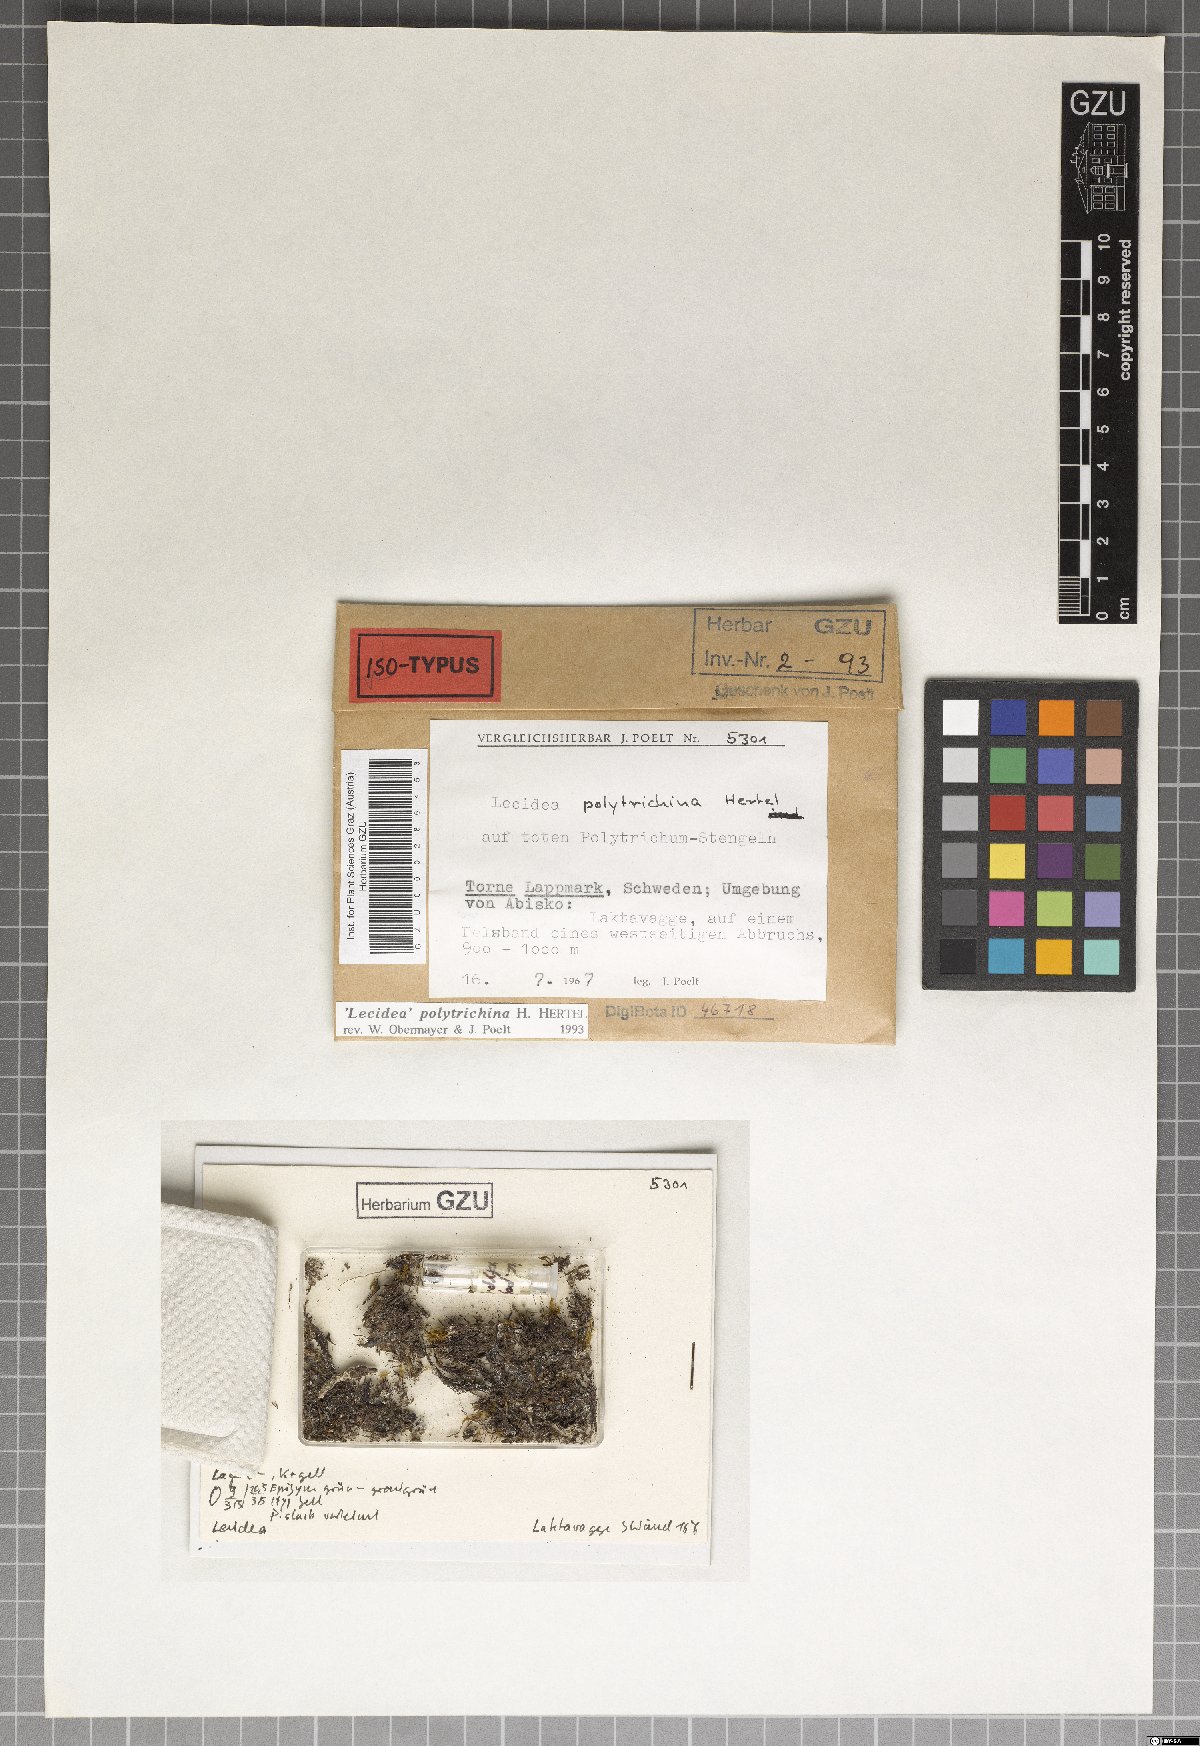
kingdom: Fungi
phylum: Ascomycota
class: Lecanoromycetes
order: Lecideales
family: Lecideaceae
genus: Lecidea
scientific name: Lecidea polytrichina
